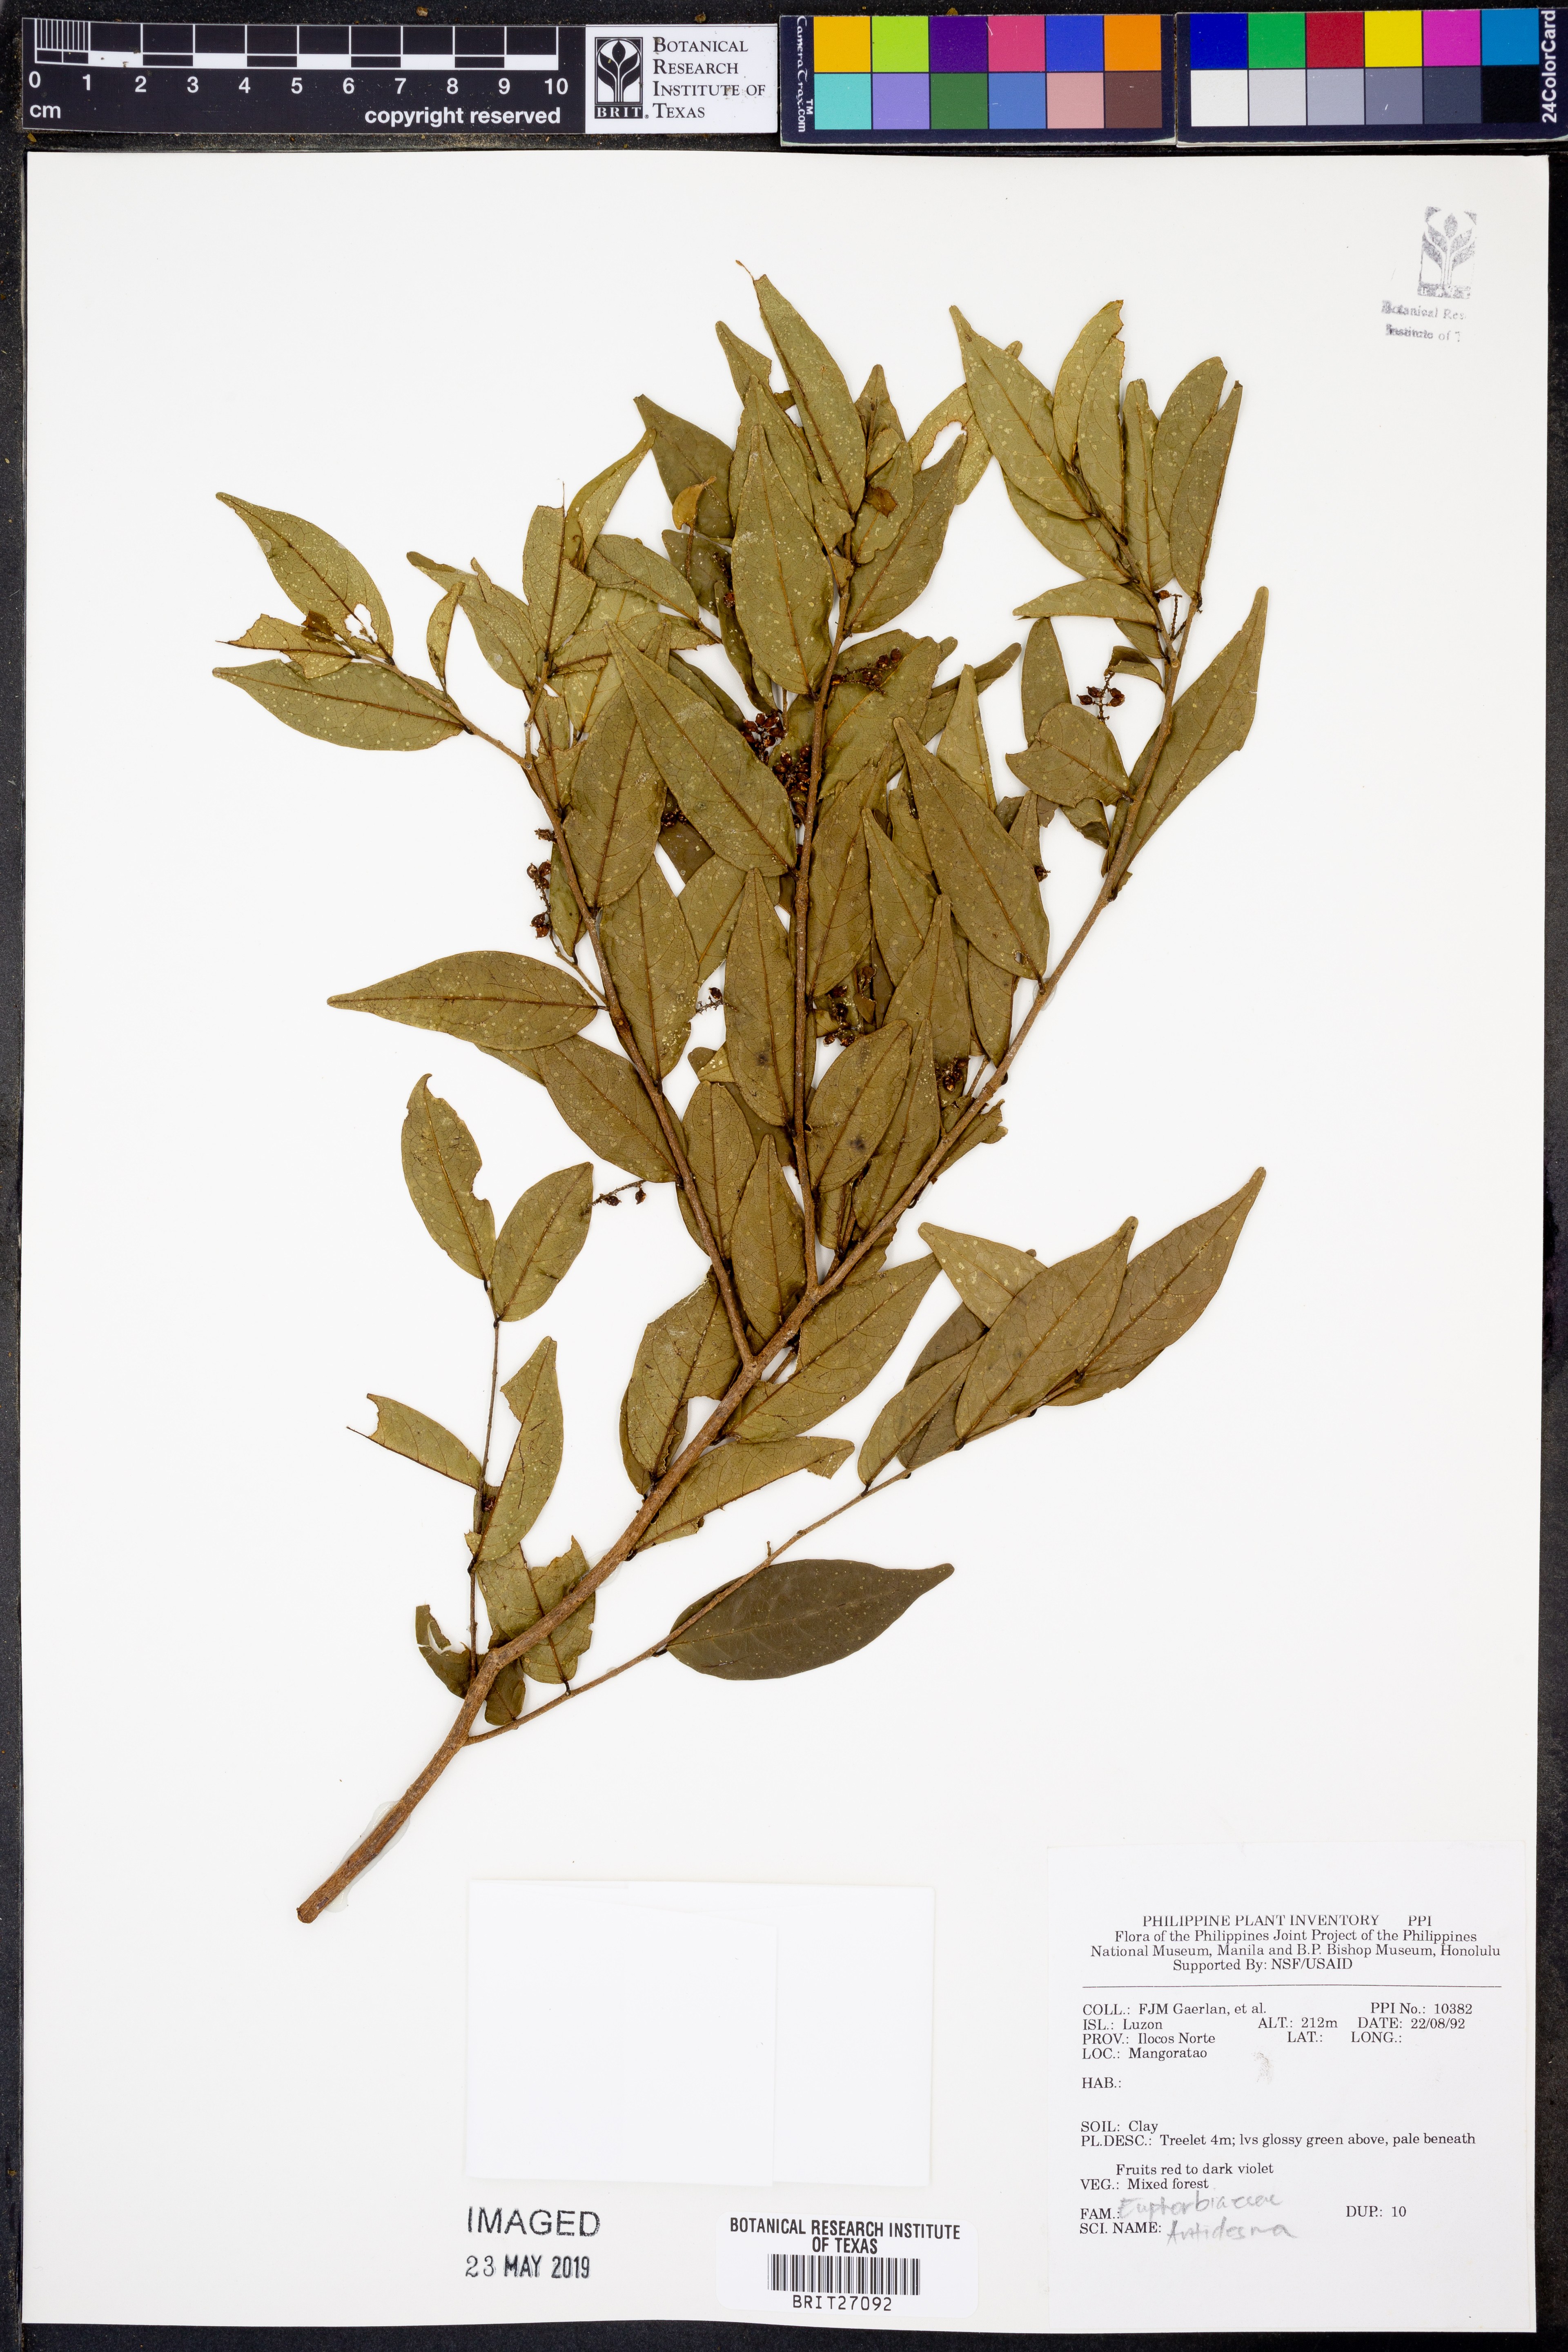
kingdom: Plantae
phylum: Tracheophyta
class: Magnoliopsida
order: Malpighiales
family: Phyllanthaceae
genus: Antidesma
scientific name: Antidesma
